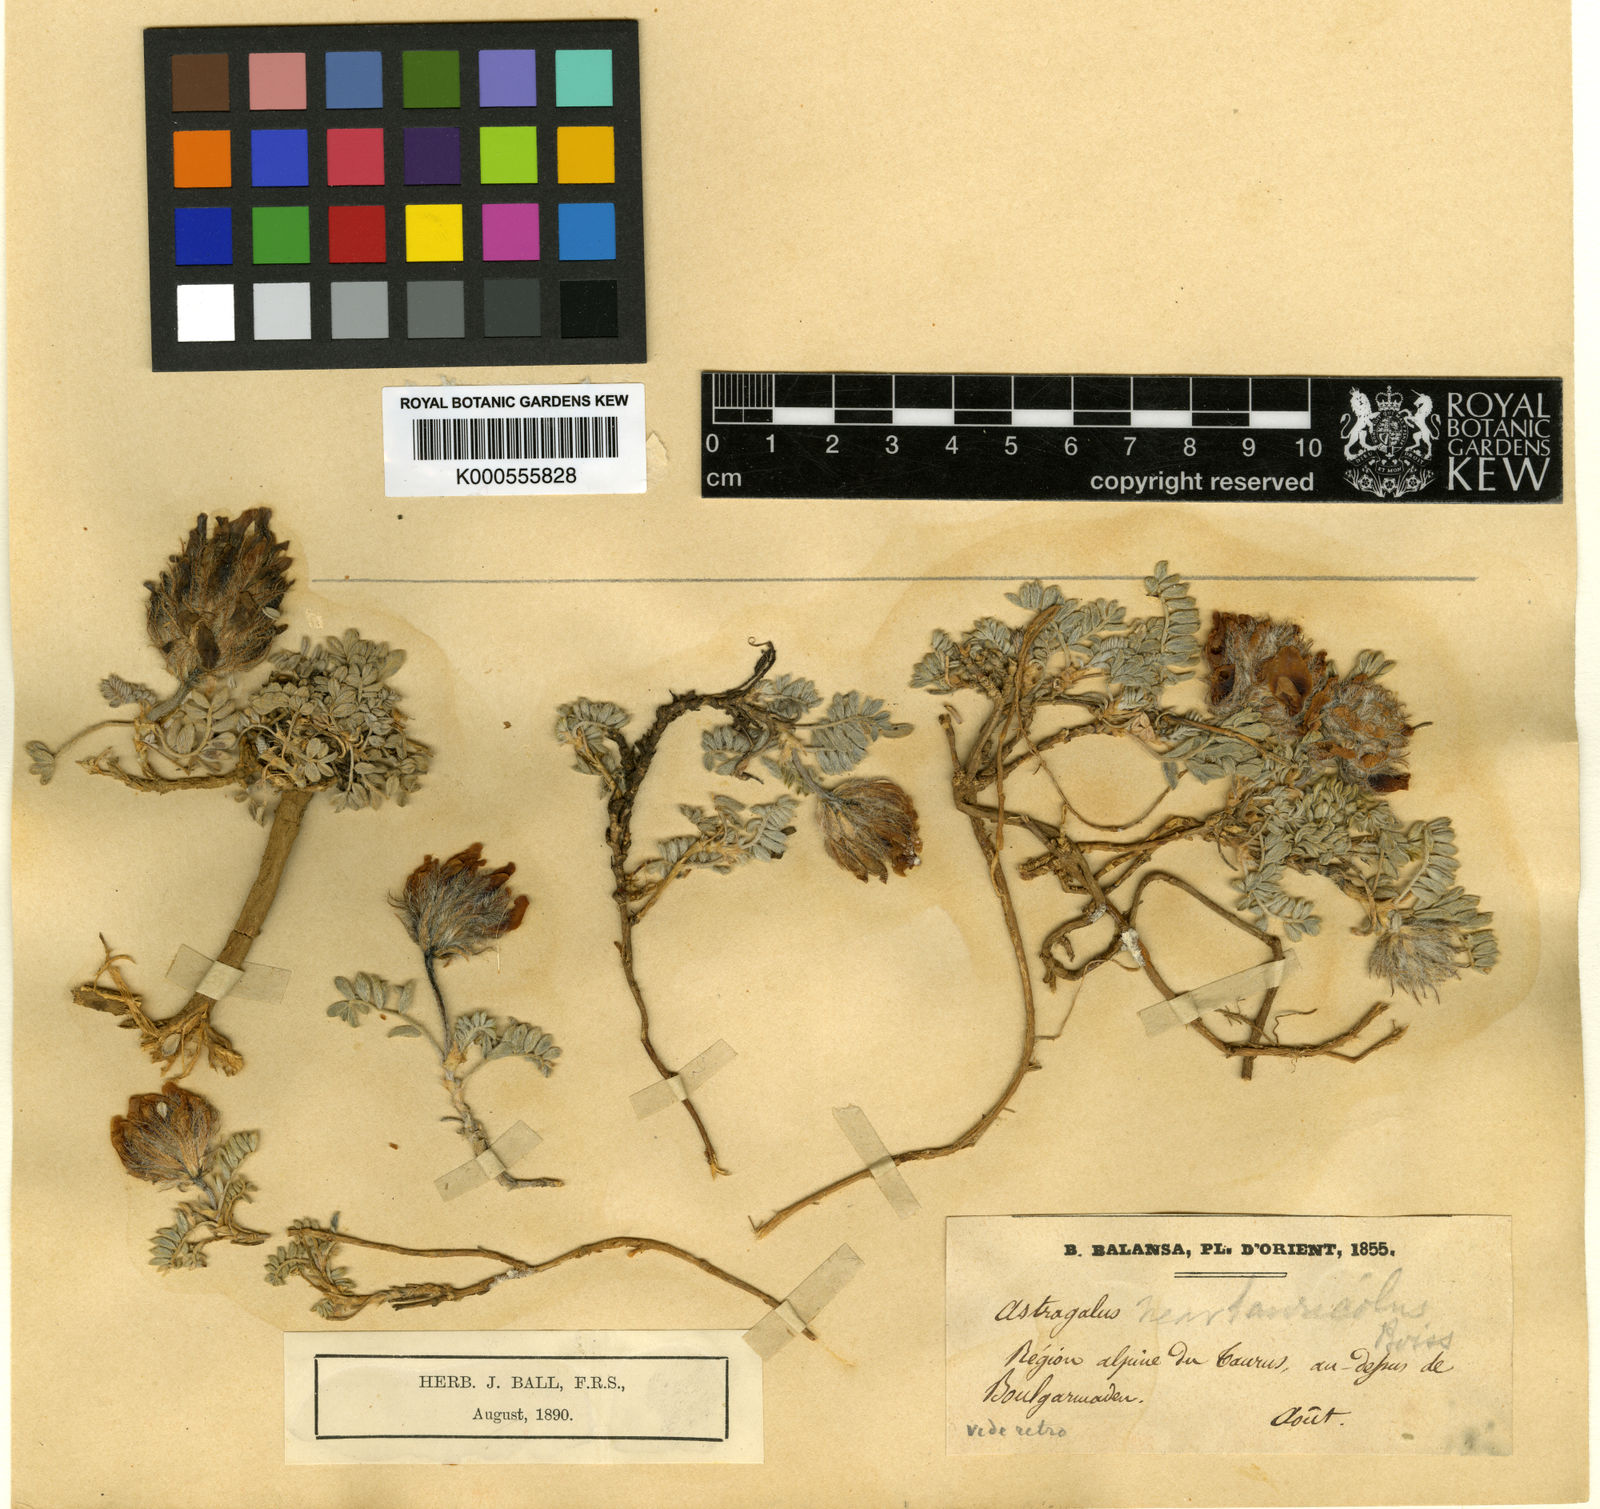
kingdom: Plantae
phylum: Tracheophyta
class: Magnoliopsida
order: Fabales
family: Fabaceae
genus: Astragalus
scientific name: Astragalus tauricola
